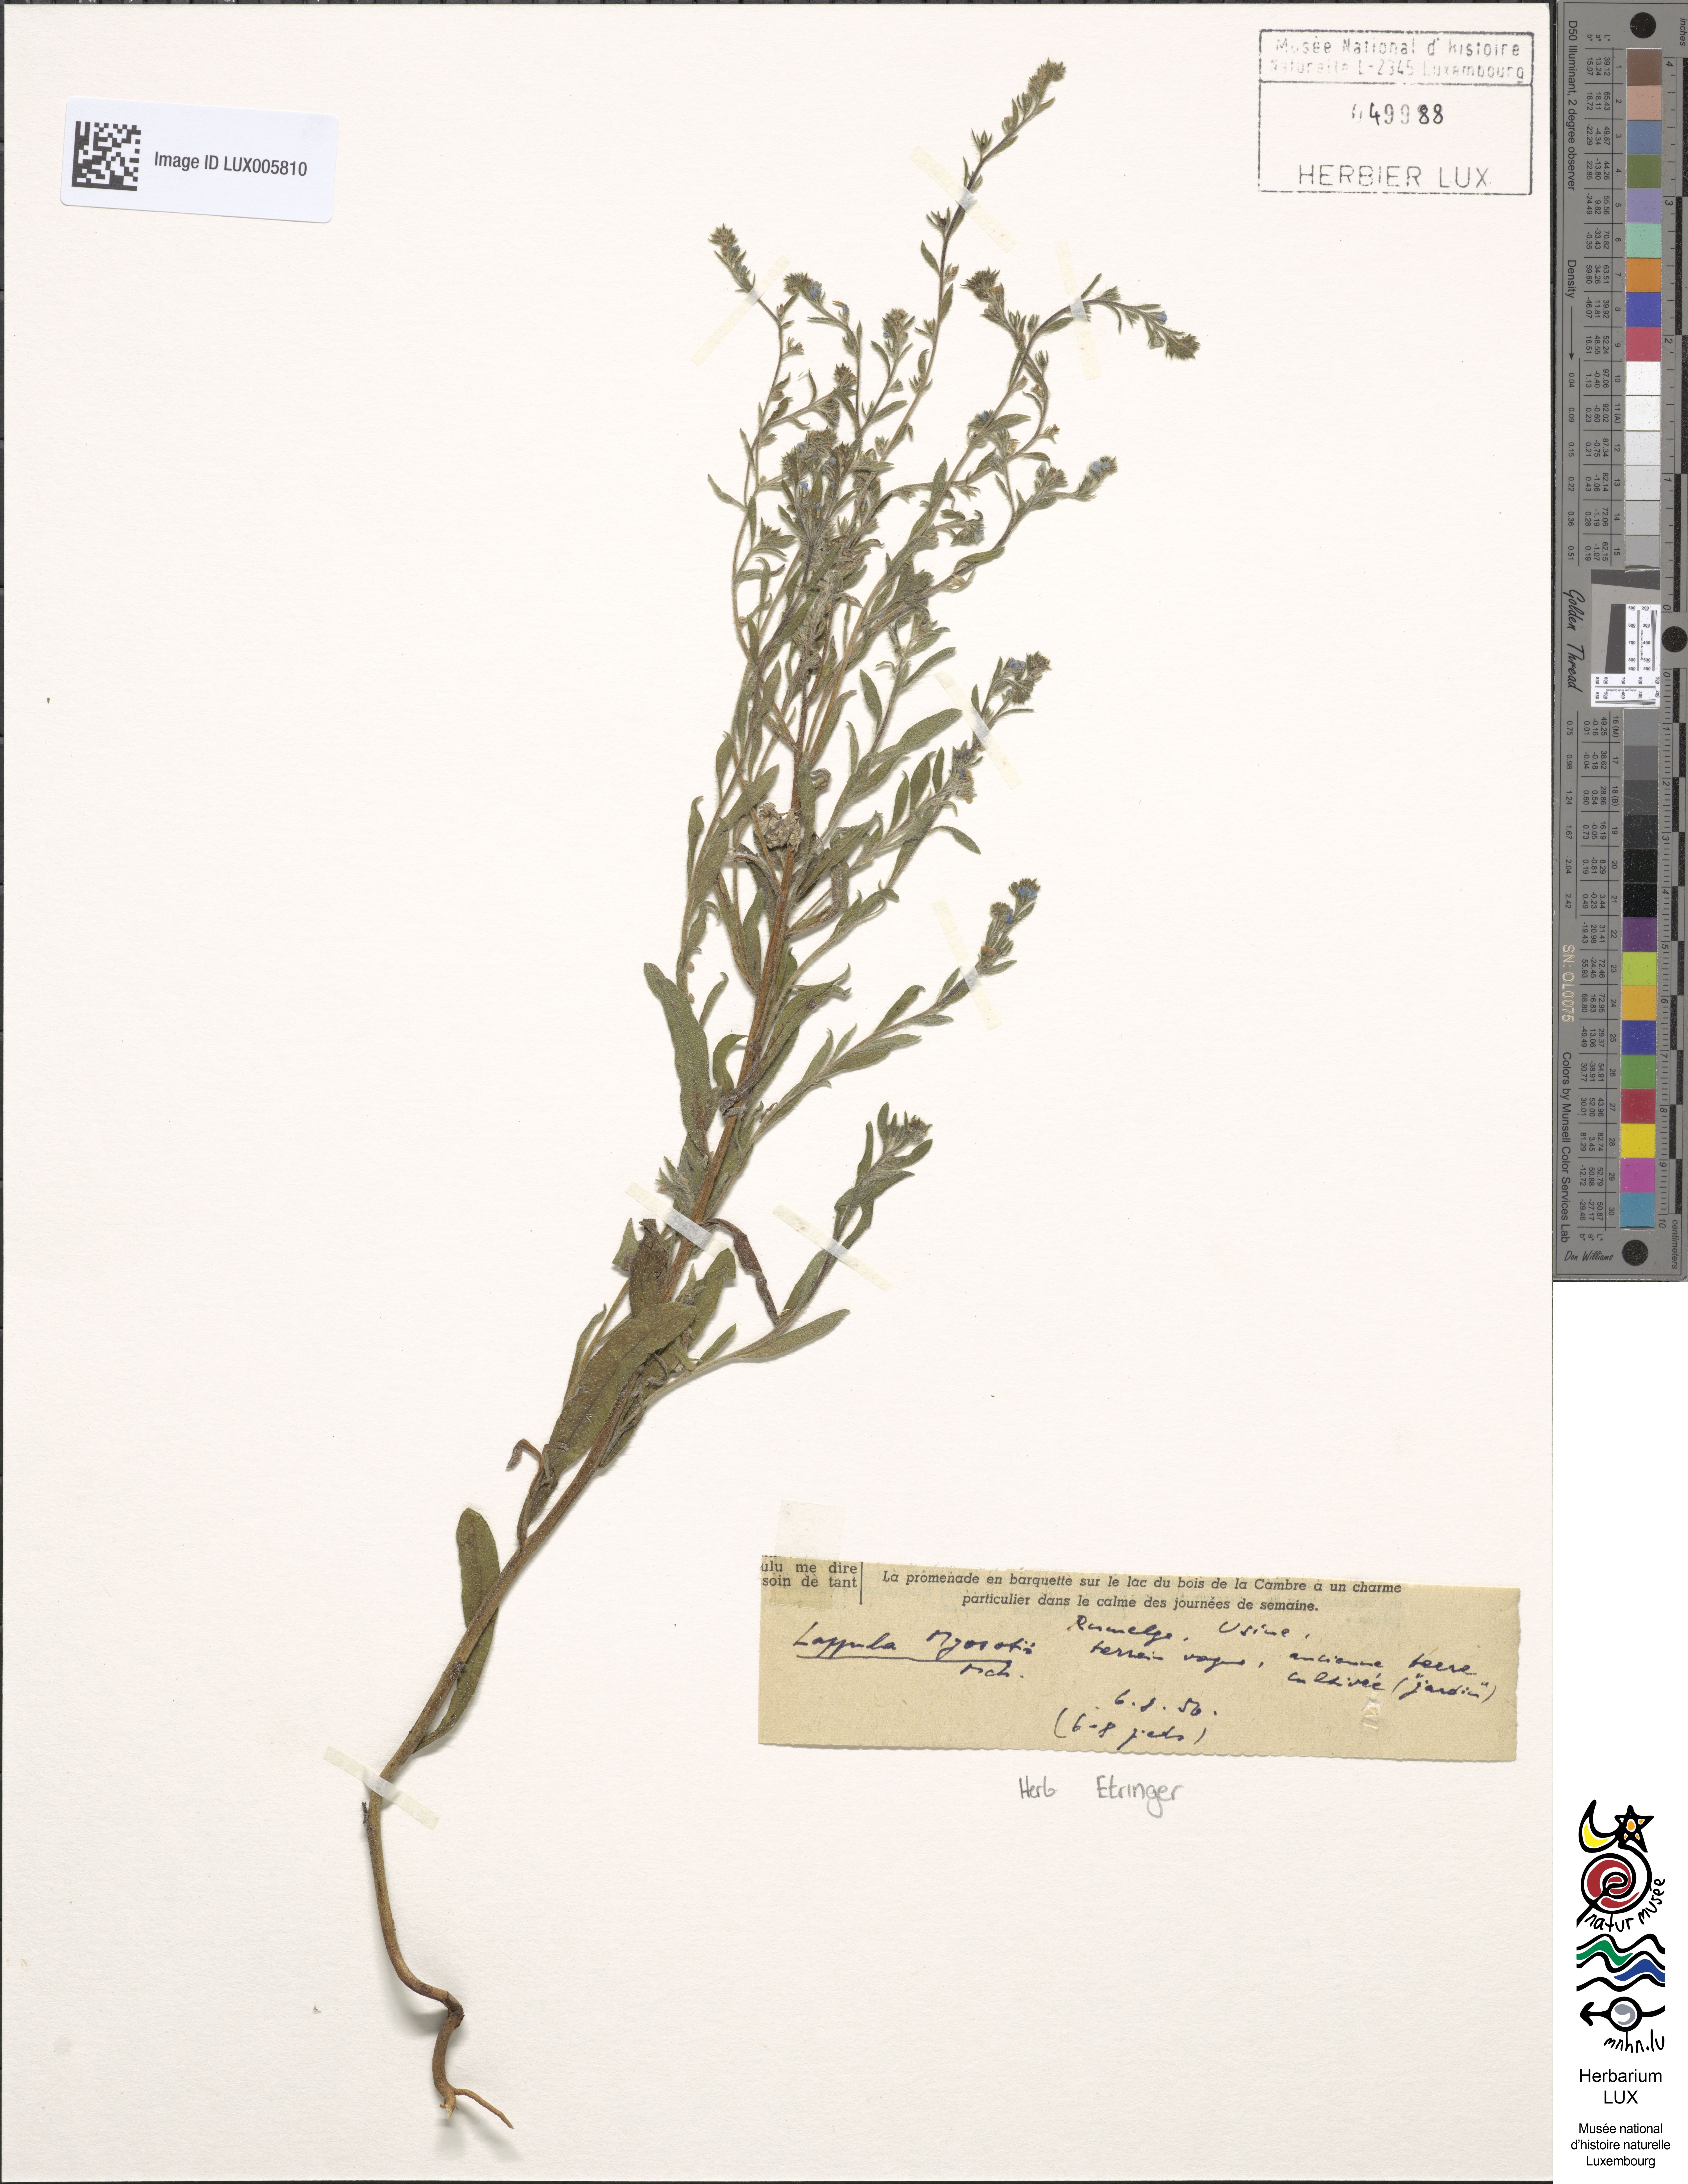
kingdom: Plantae
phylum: Tracheophyta
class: Magnoliopsida
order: Boraginales
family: Boraginaceae
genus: Lappula
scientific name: Lappula squarrosa
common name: European stickseed
